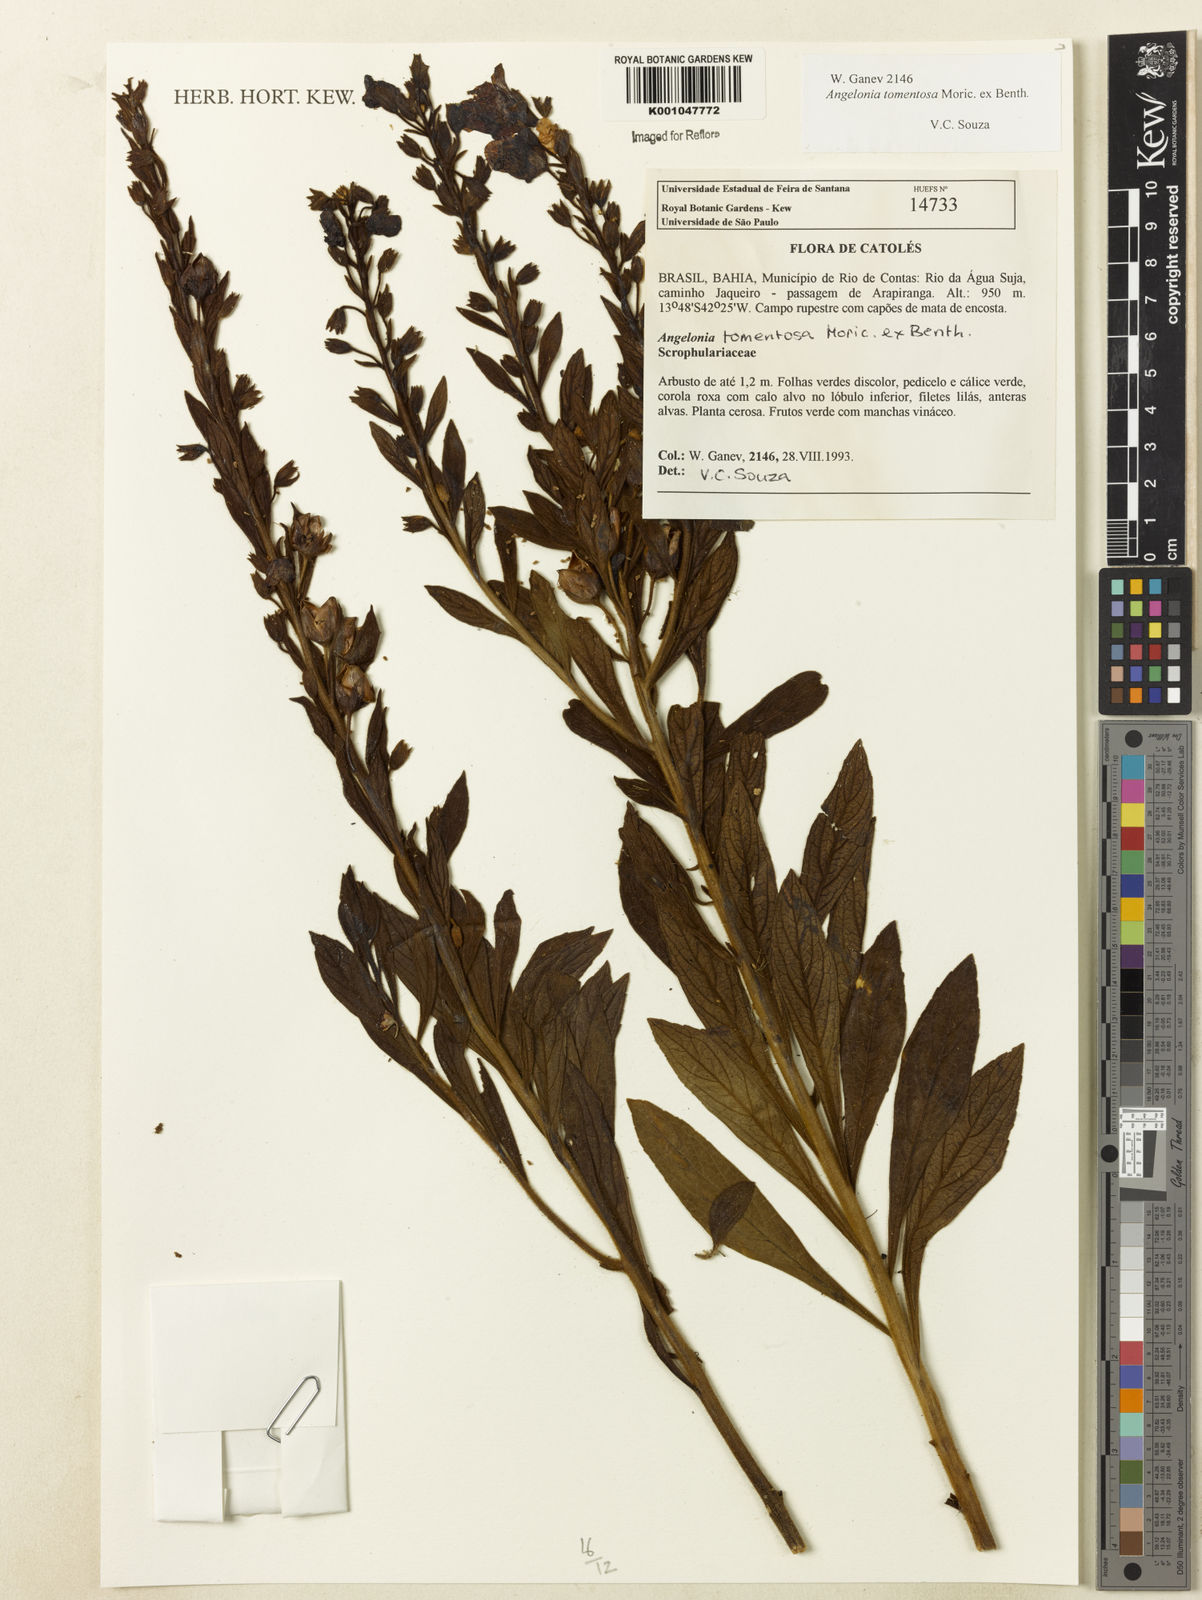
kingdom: Plantae
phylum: Tracheophyta
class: Magnoliopsida
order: Lamiales
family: Plantaginaceae
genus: Angelonia
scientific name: Angelonia tomentosa
